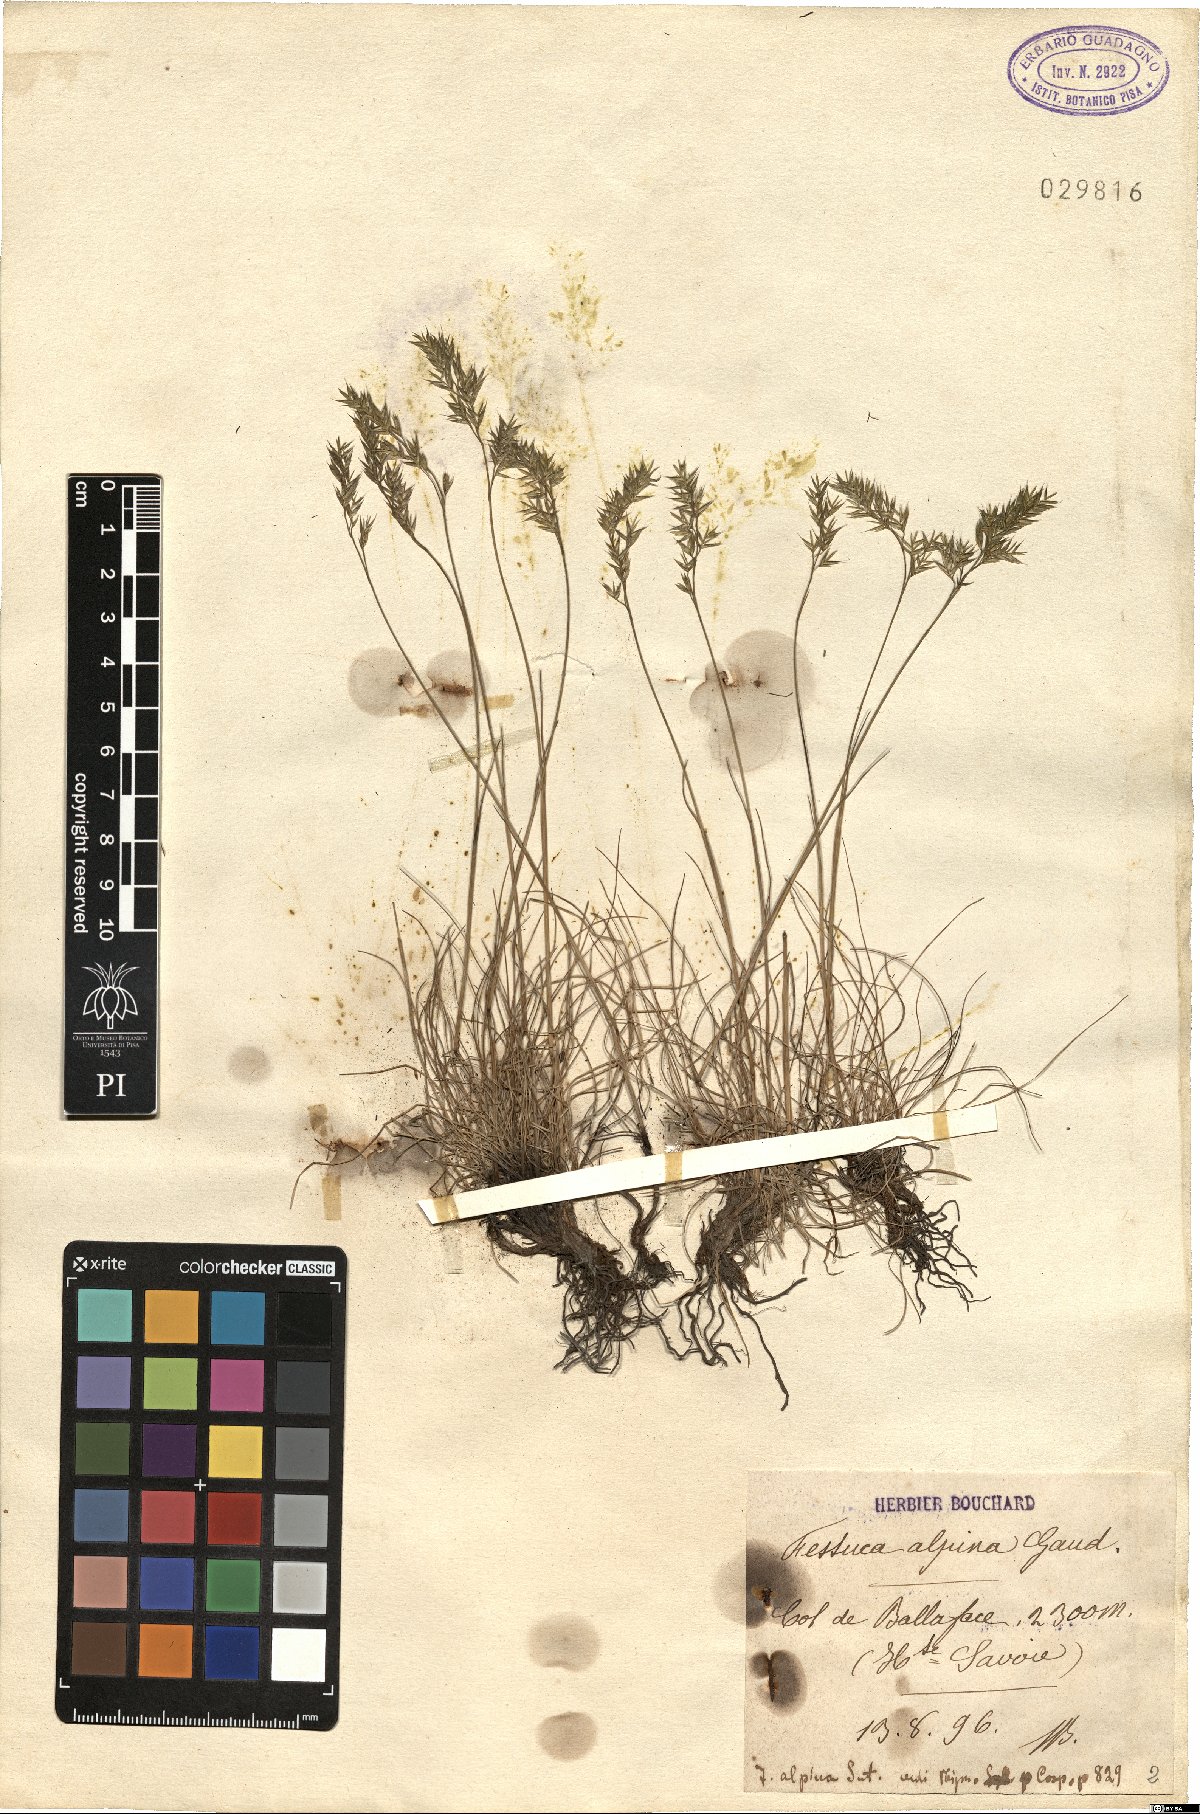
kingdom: Plantae
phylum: Tracheophyta
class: Liliopsida
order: Poales
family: Poaceae
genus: Festuca
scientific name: Festuca alpina
